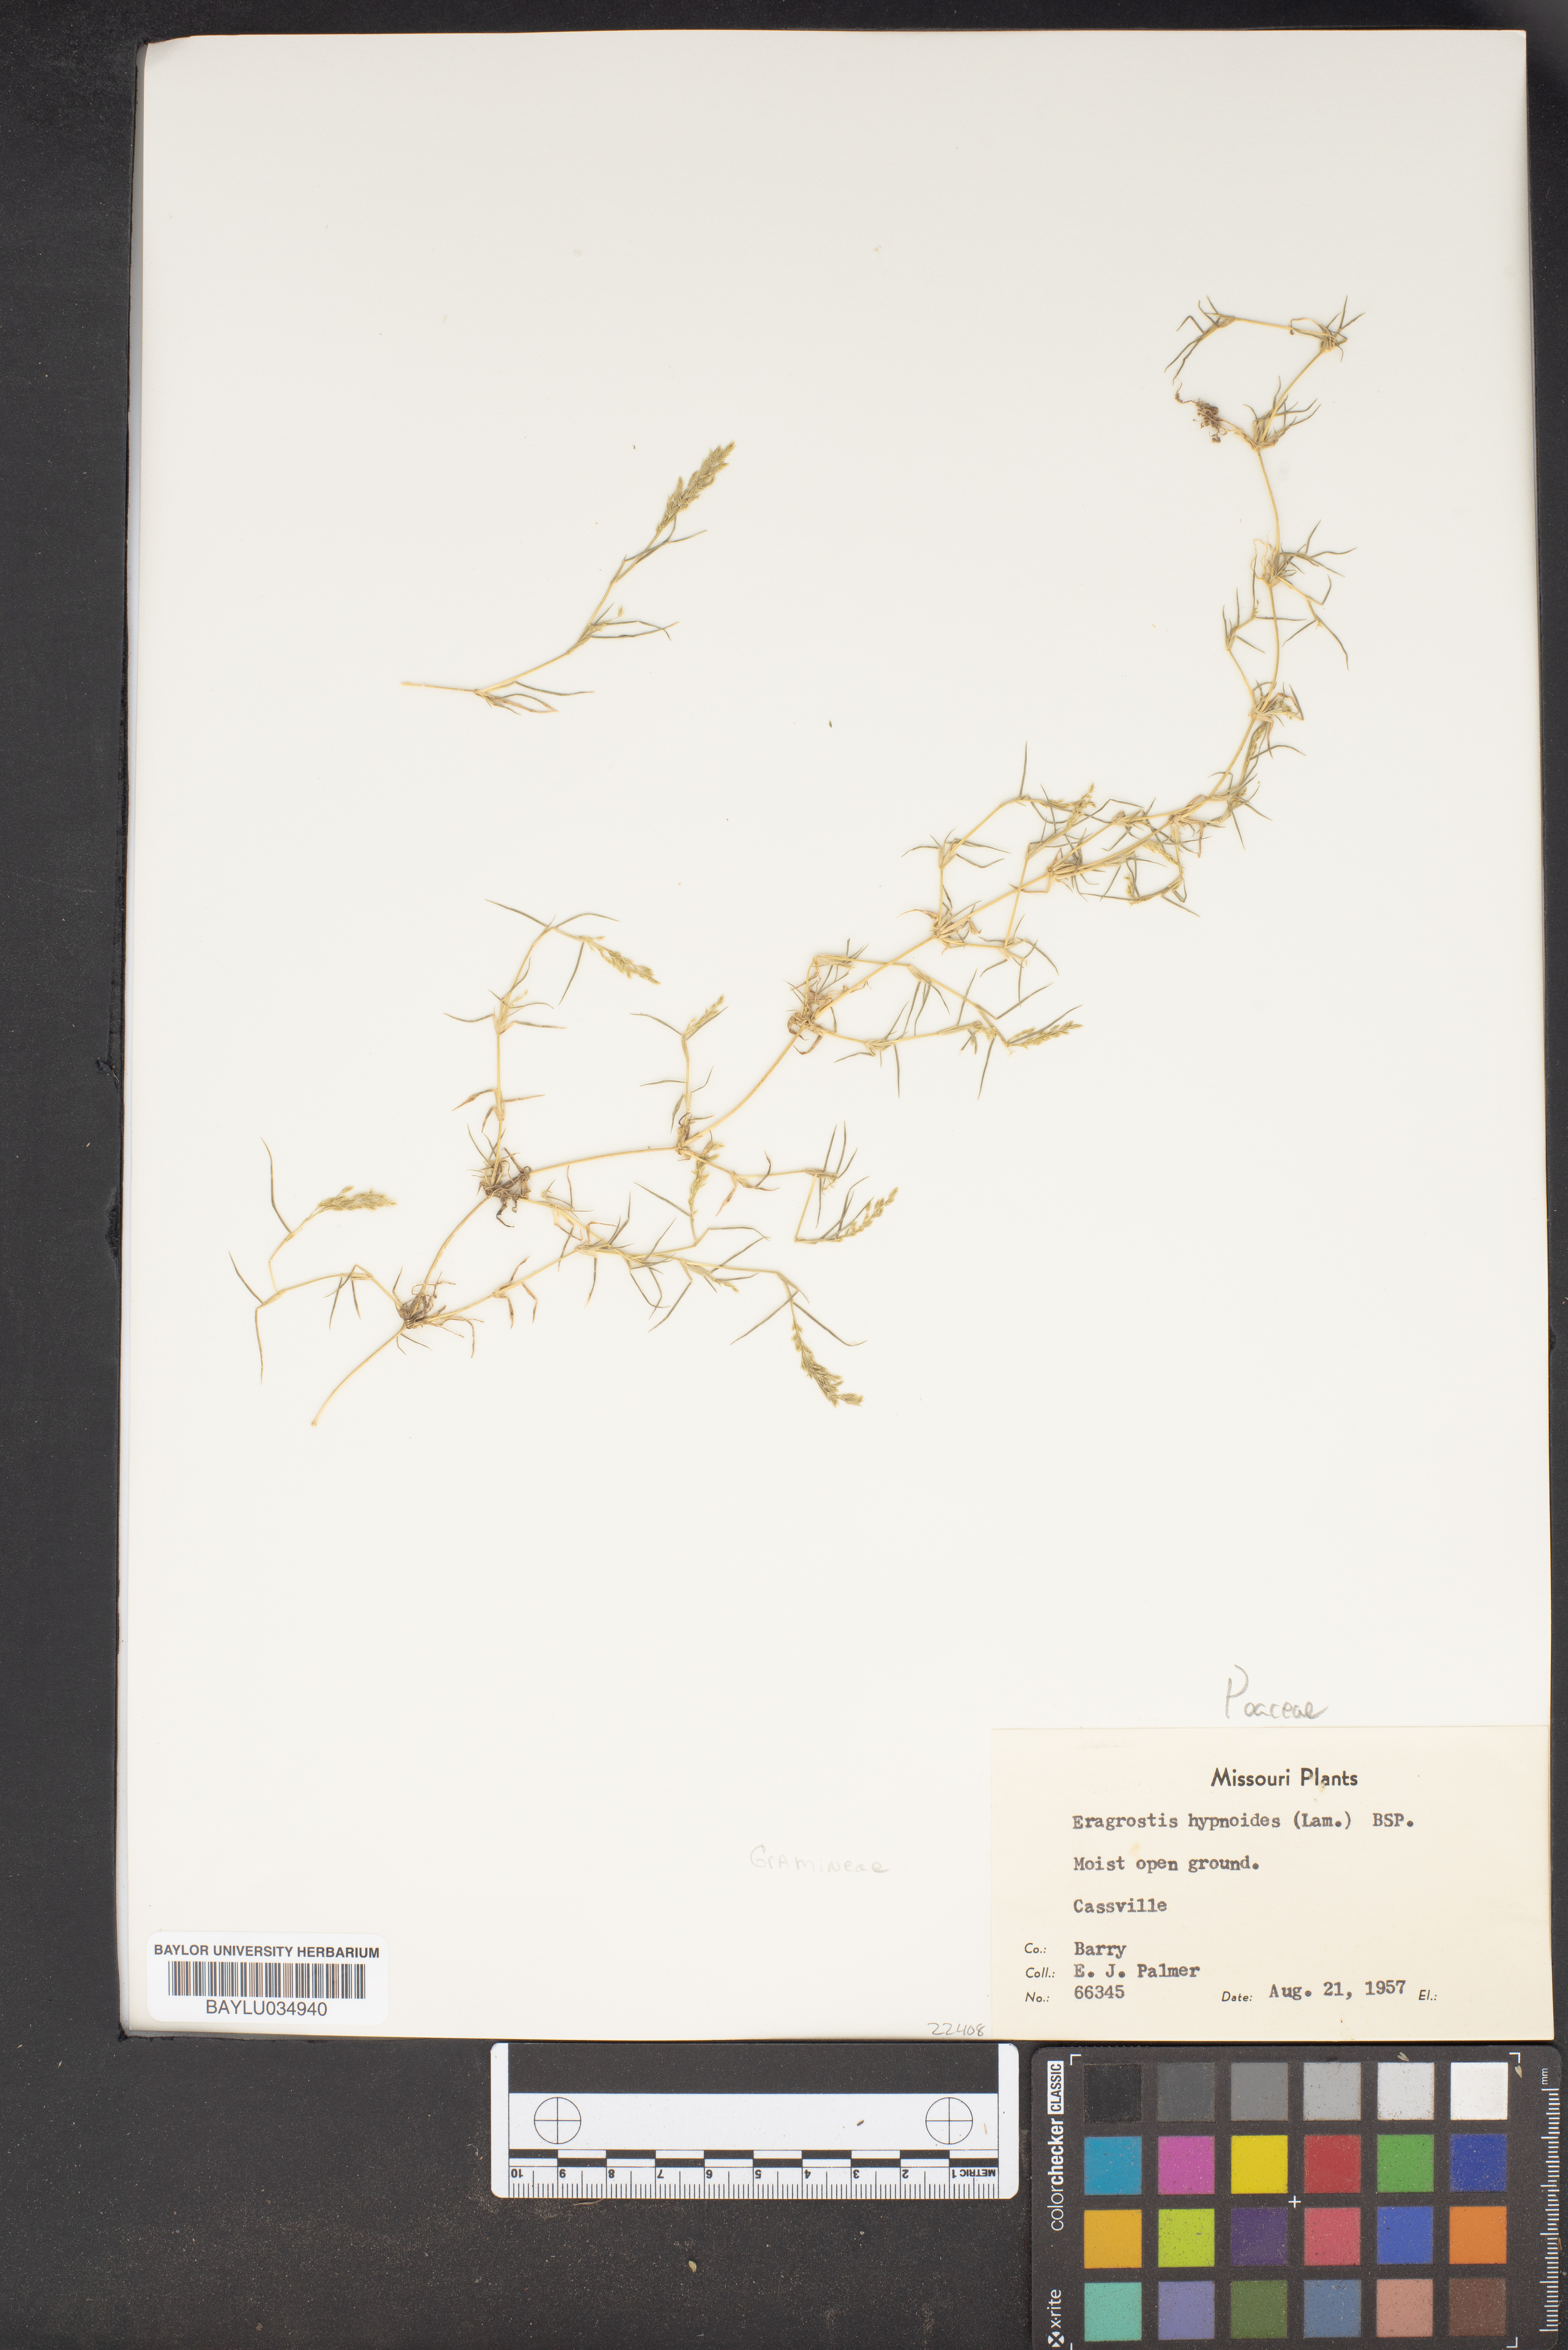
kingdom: Plantae
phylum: Tracheophyta
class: Liliopsida
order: Poales
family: Poaceae
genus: Eragrostis
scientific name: Eragrostis hypnoides
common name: Creeping love grass
